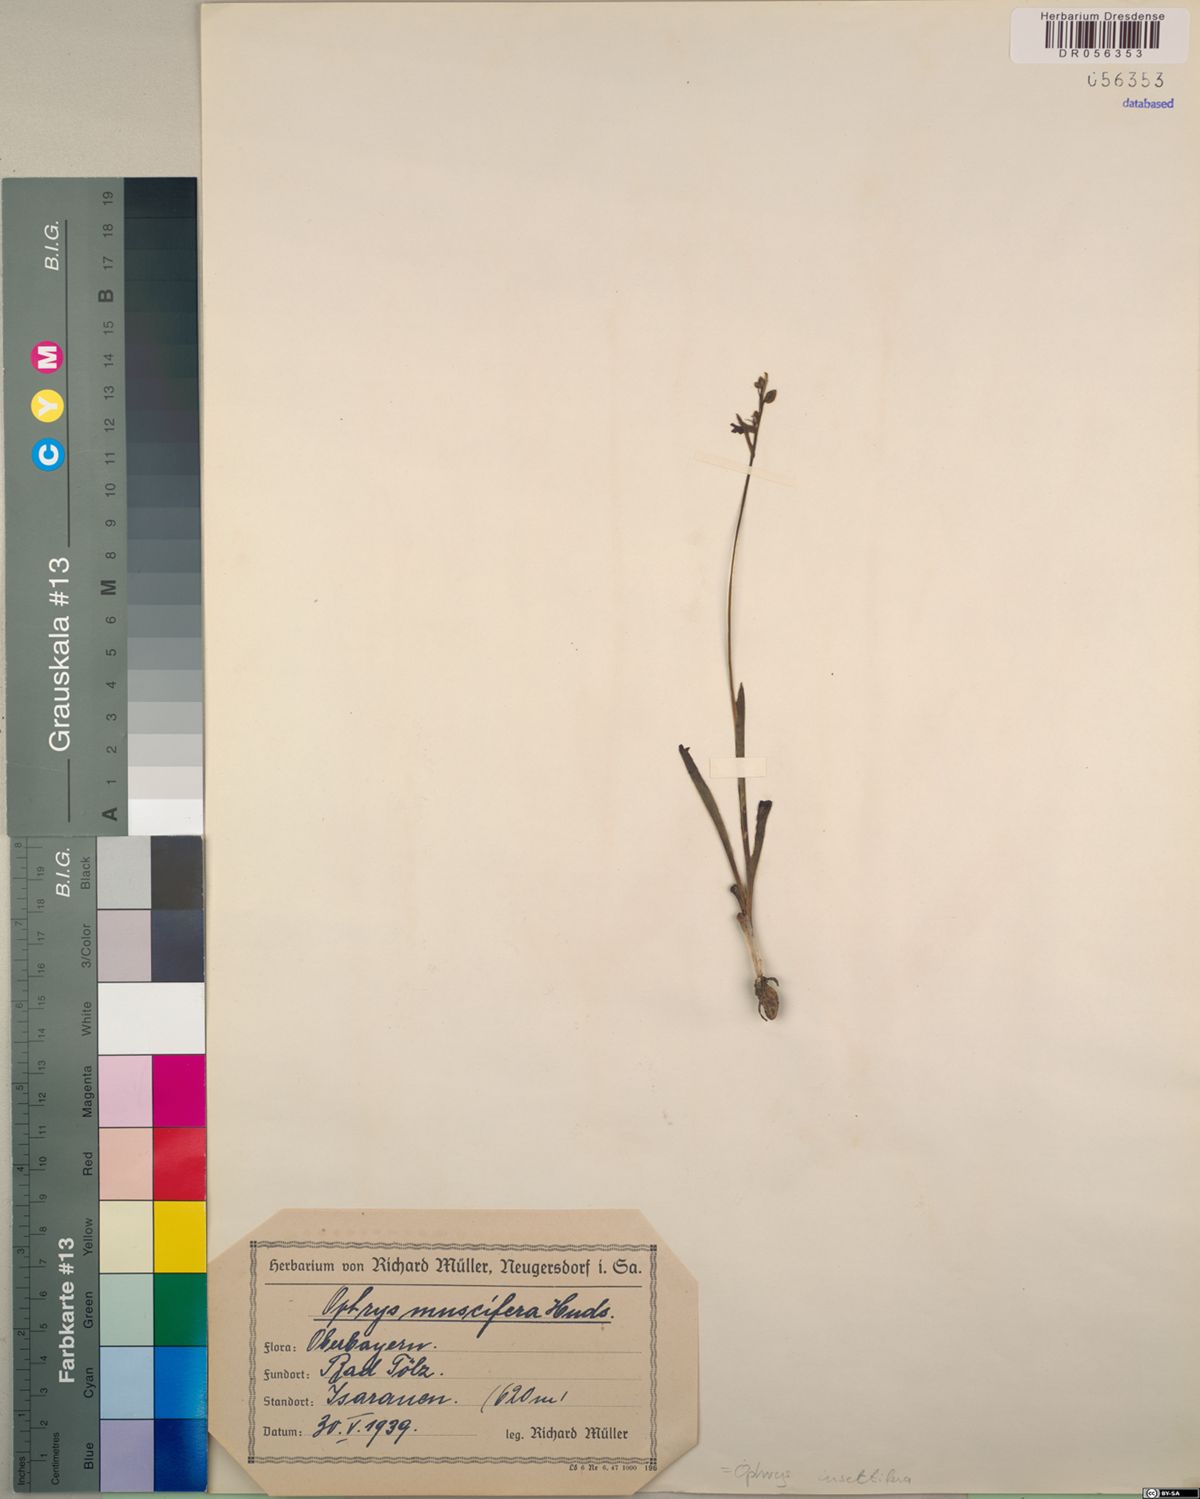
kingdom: Plantae
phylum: Tracheophyta
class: Liliopsida
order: Asparagales
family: Orchidaceae
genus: Ophrys
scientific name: Ophrys insectifera
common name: Fly orchid
